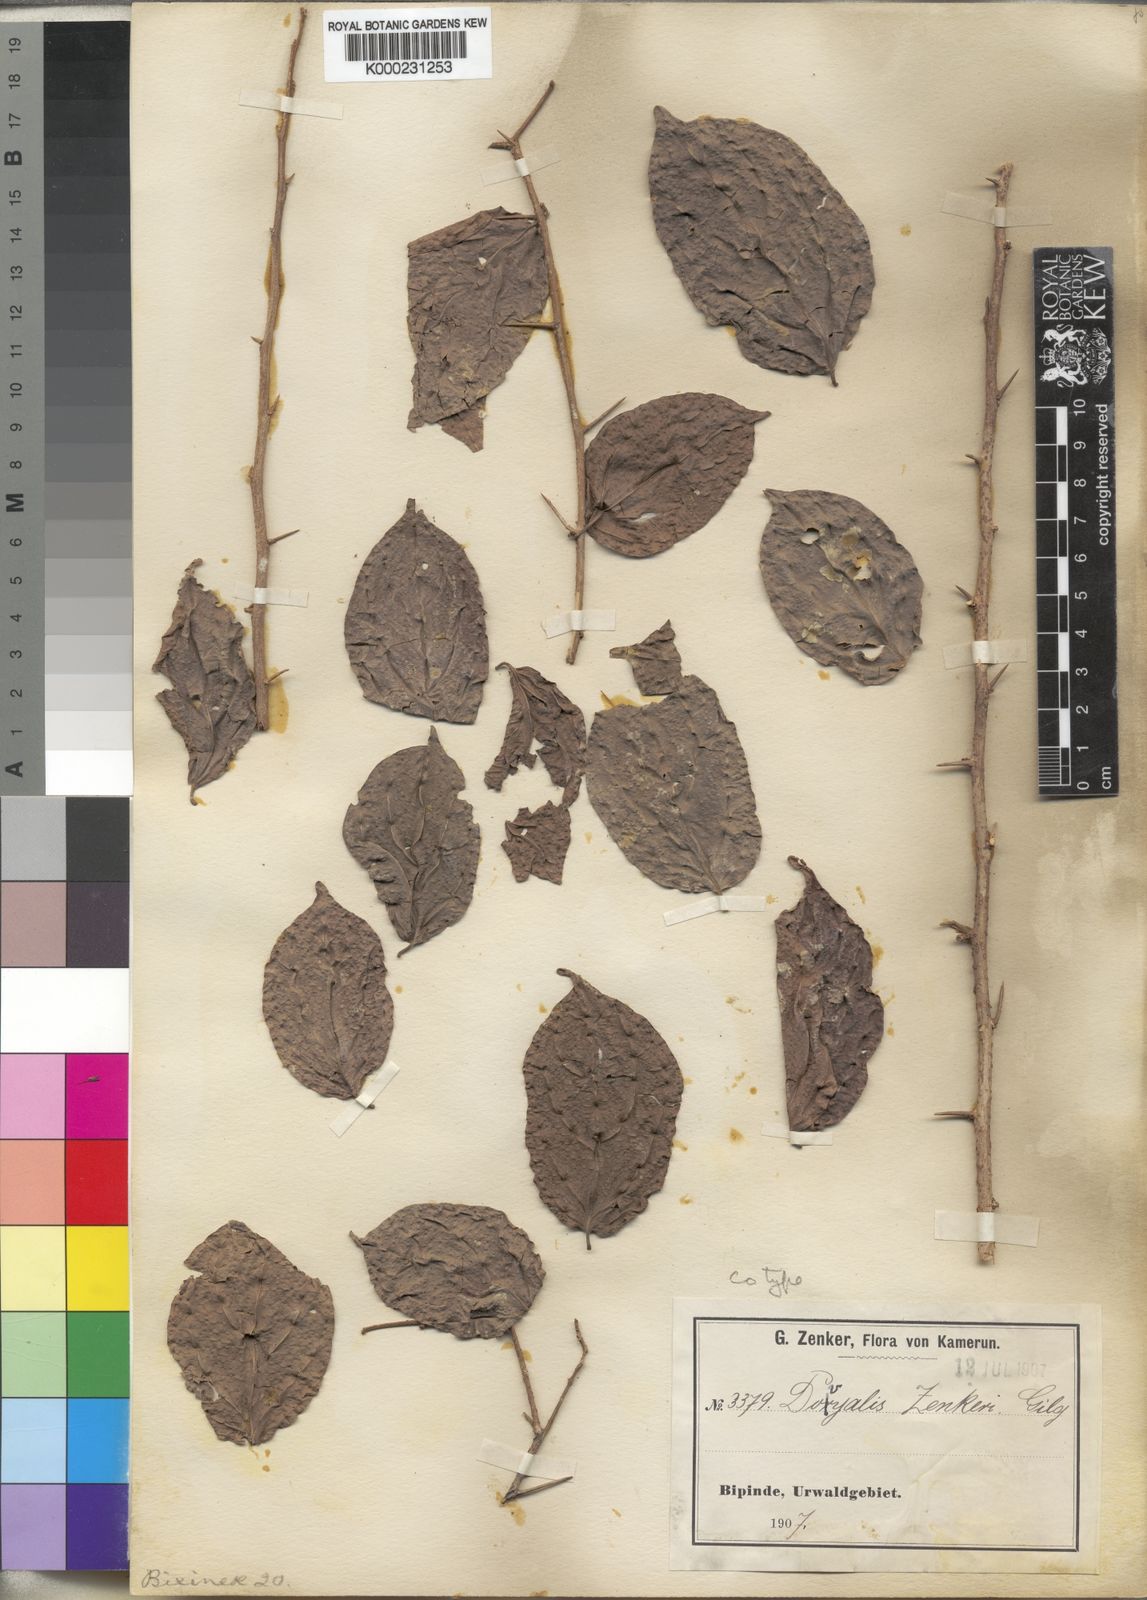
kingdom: Plantae
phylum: Tracheophyta
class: Magnoliopsida
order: Malpighiales
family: Salicaceae
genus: Dovyalis
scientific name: Dovyalis zenkeri
